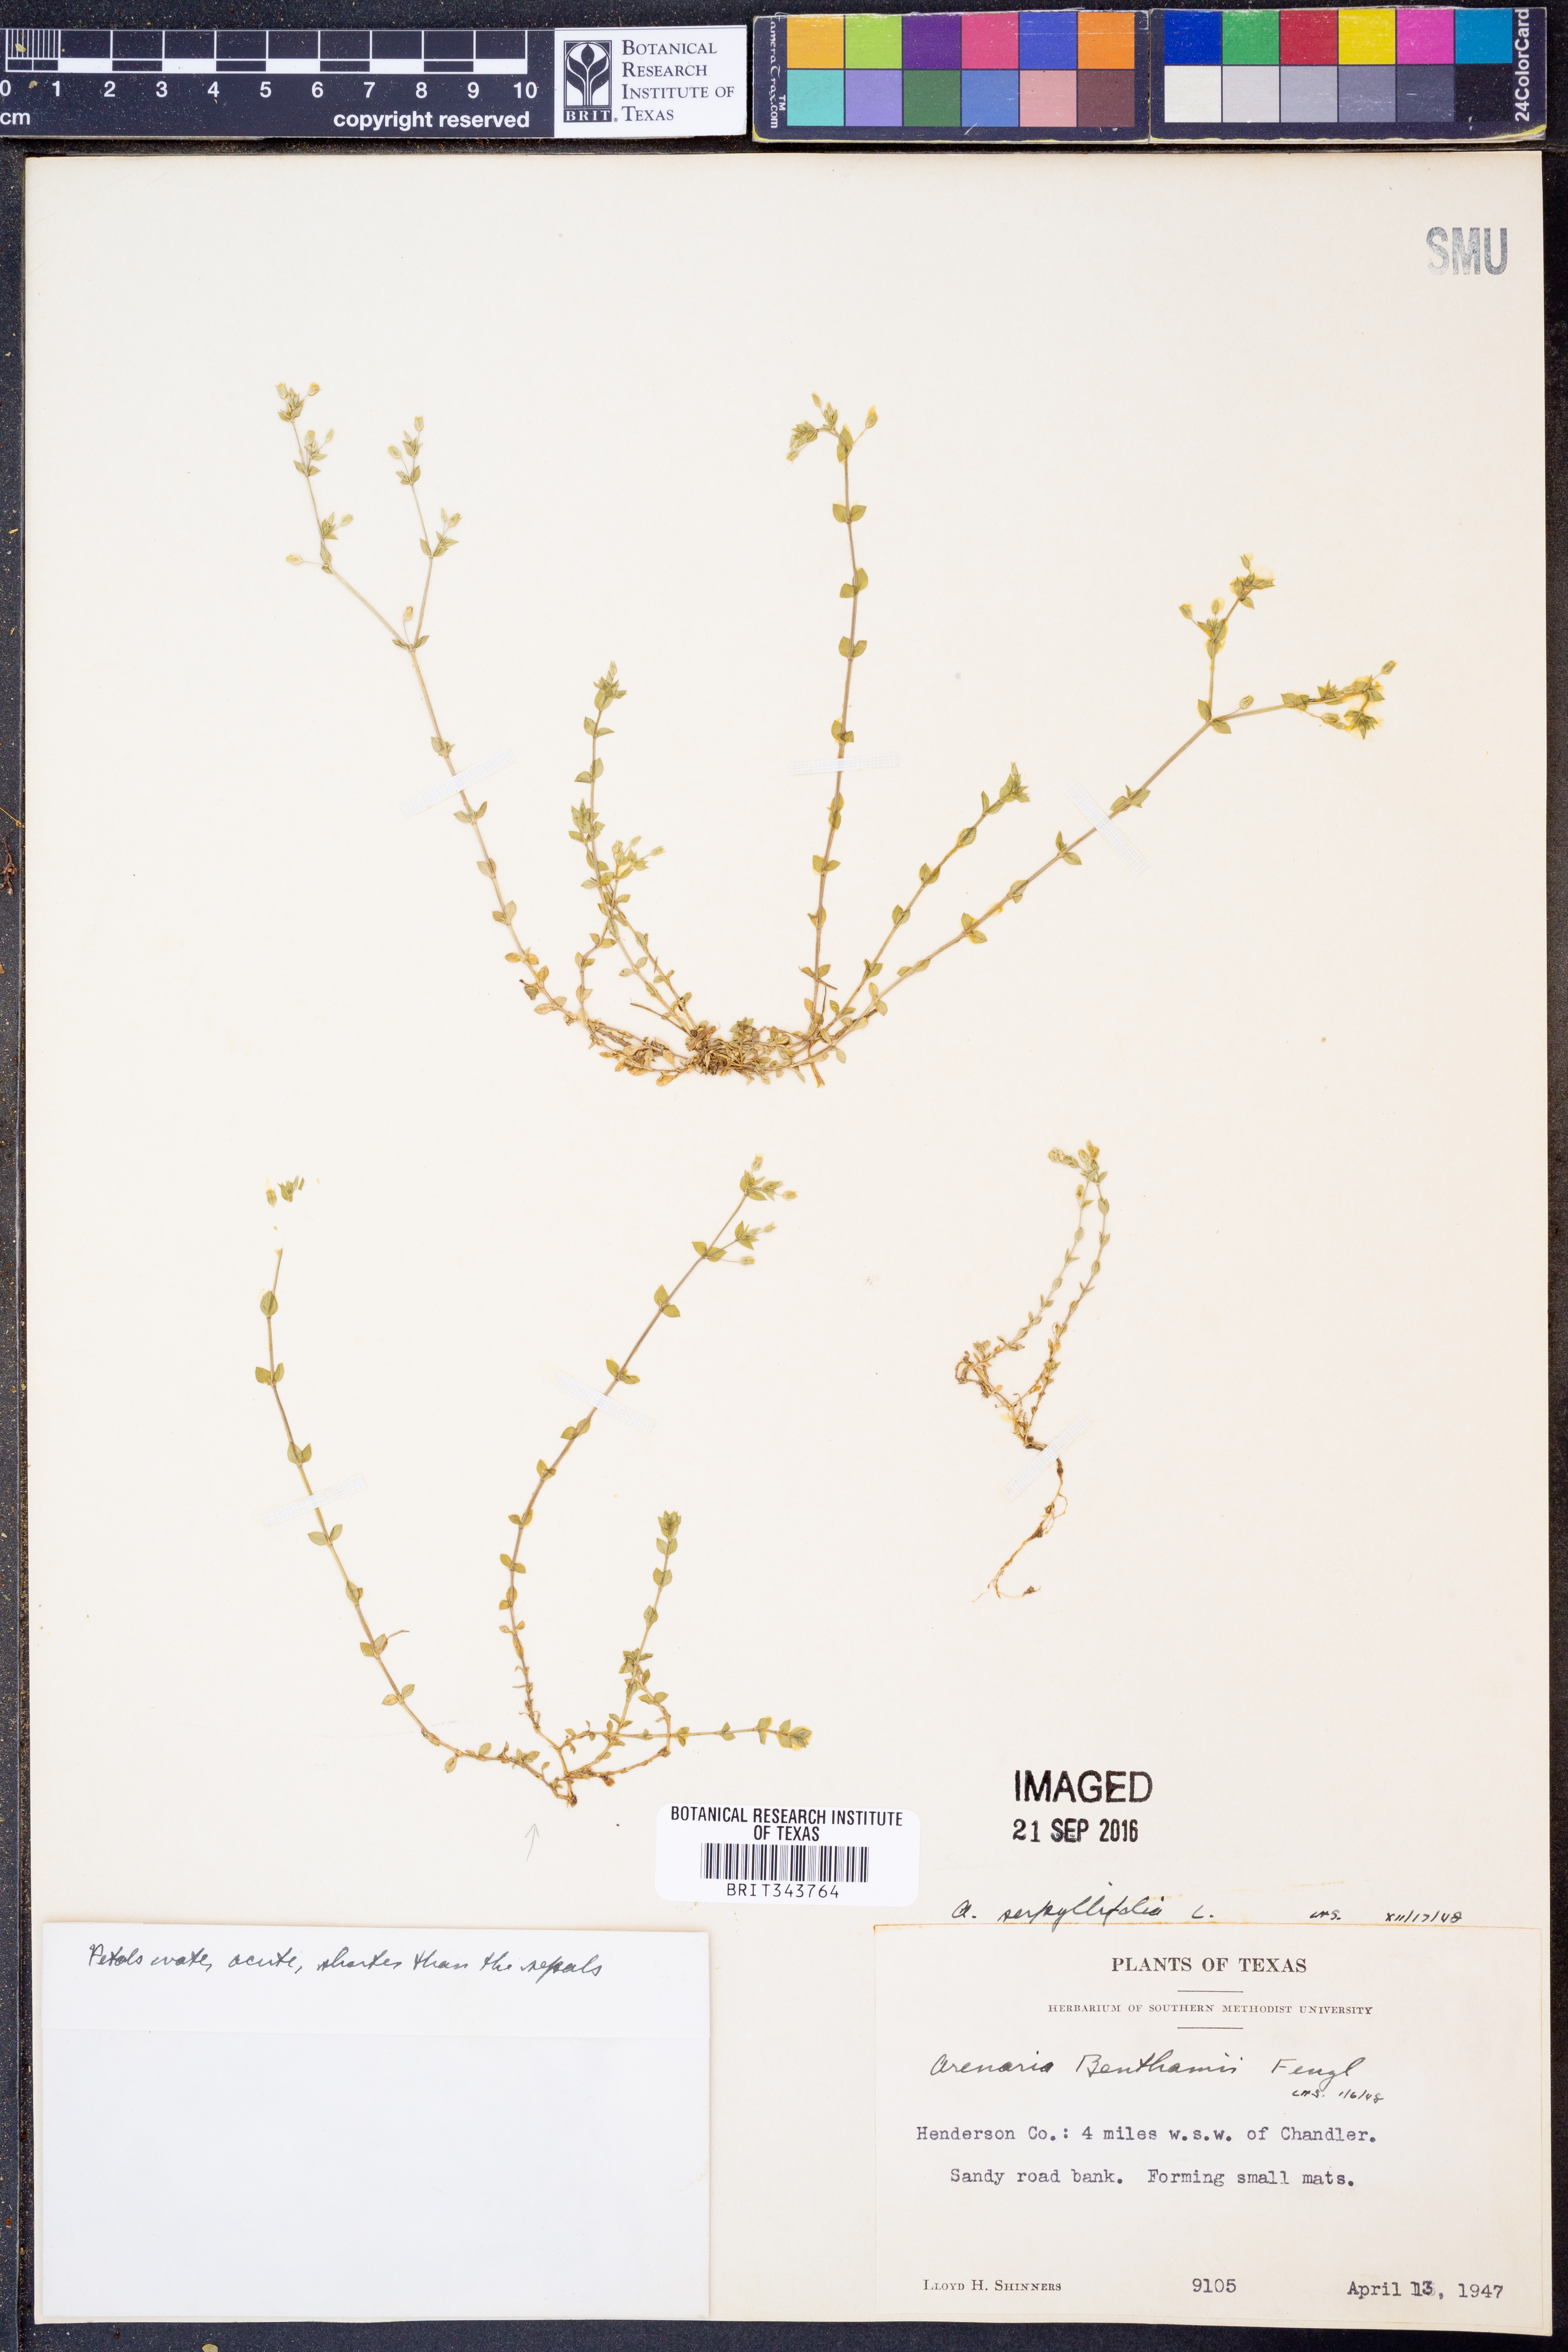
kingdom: Plantae
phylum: Tracheophyta
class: Magnoliopsida
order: Caryophyllales
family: Caryophyllaceae
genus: Arenaria
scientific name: Arenaria serpyllifolia
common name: Thyme-leaved sandwort
